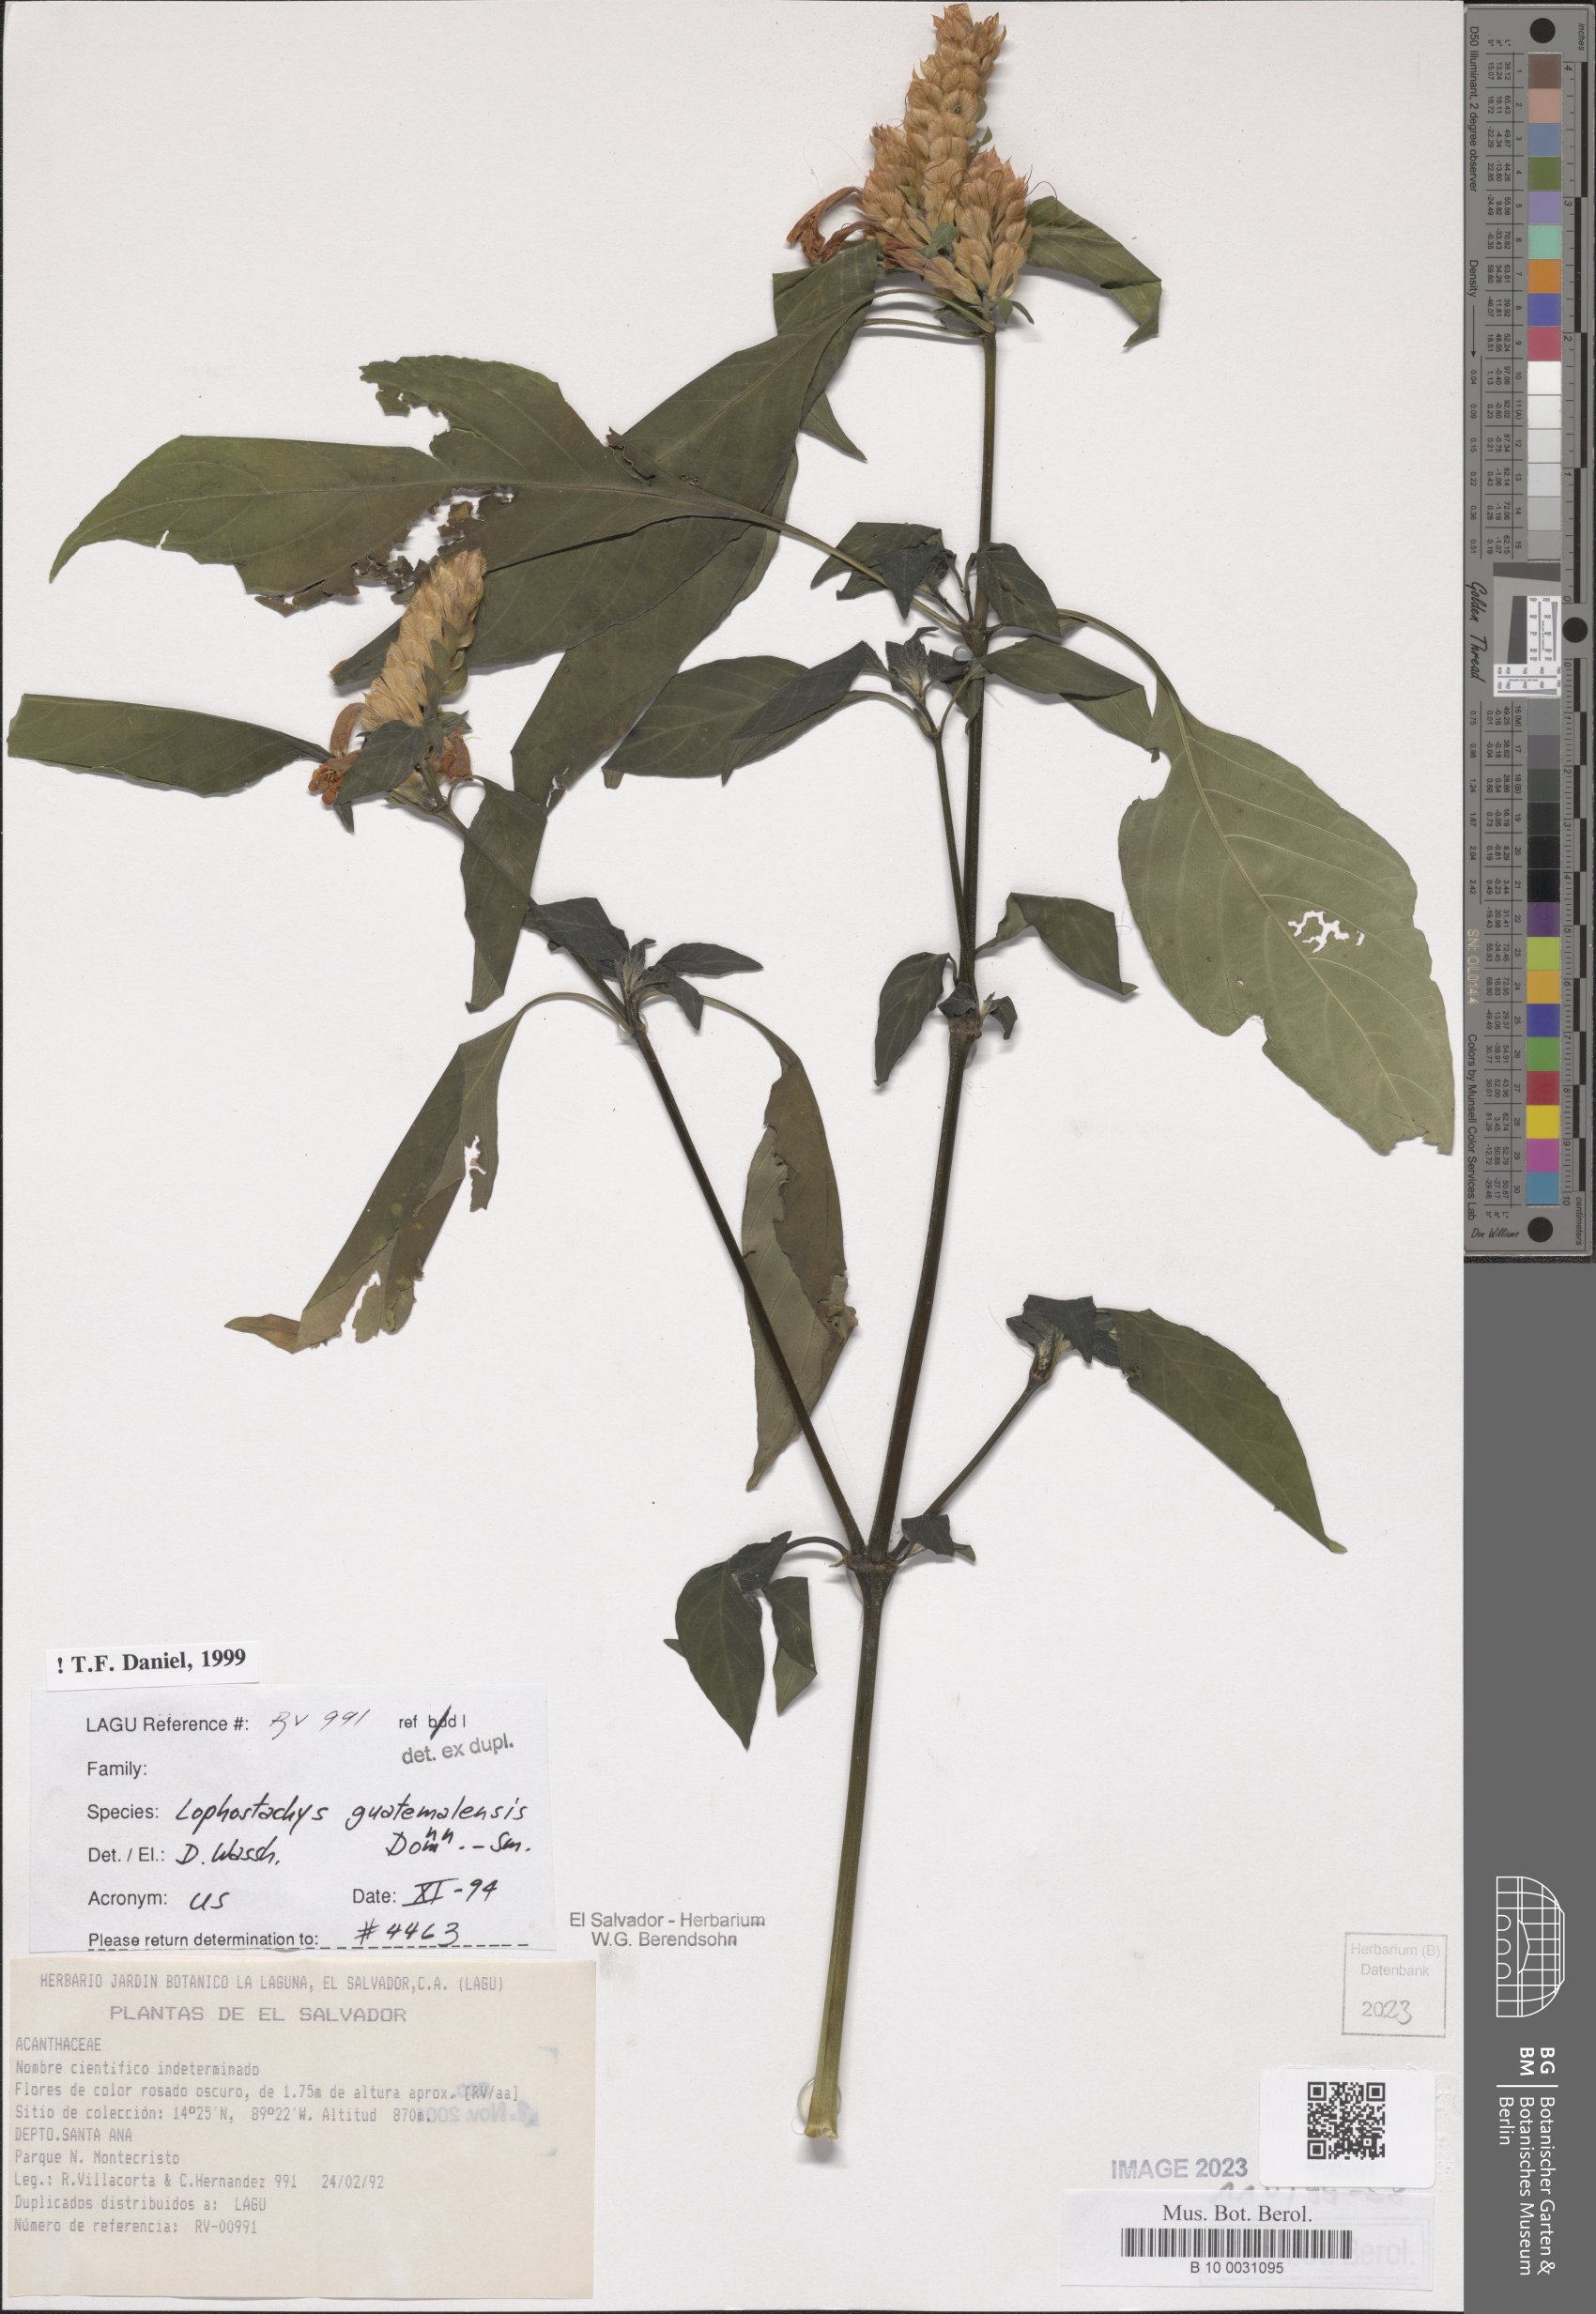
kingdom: Plantae
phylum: Tracheophyta
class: Magnoliopsida
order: Lamiales
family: Acanthaceae
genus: Lepidagathis
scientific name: Lepidagathis guatemalensis
